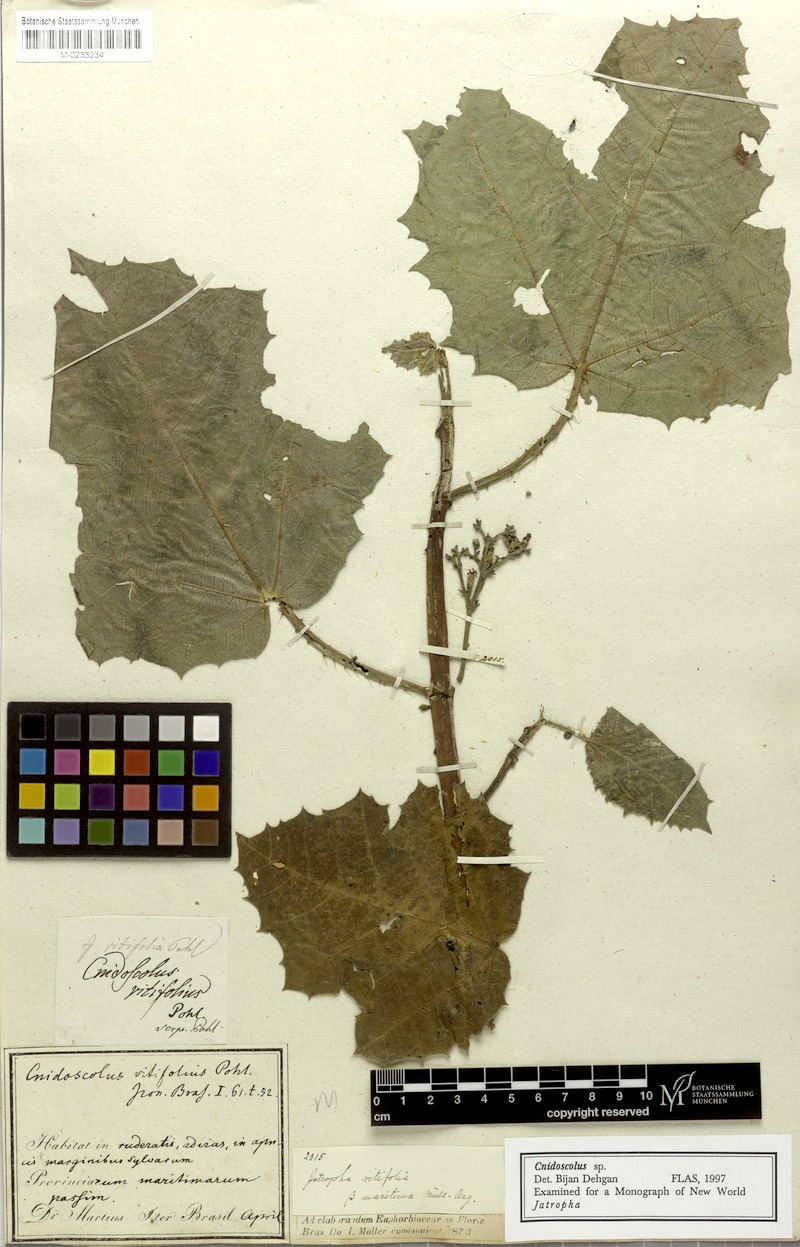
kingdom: Plantae
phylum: Tracheophyta
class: Magnoliopsida
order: Malpighiales
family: Euphorbiaceae
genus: Cnidoscolus
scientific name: Cnidoscolus vitifolius
